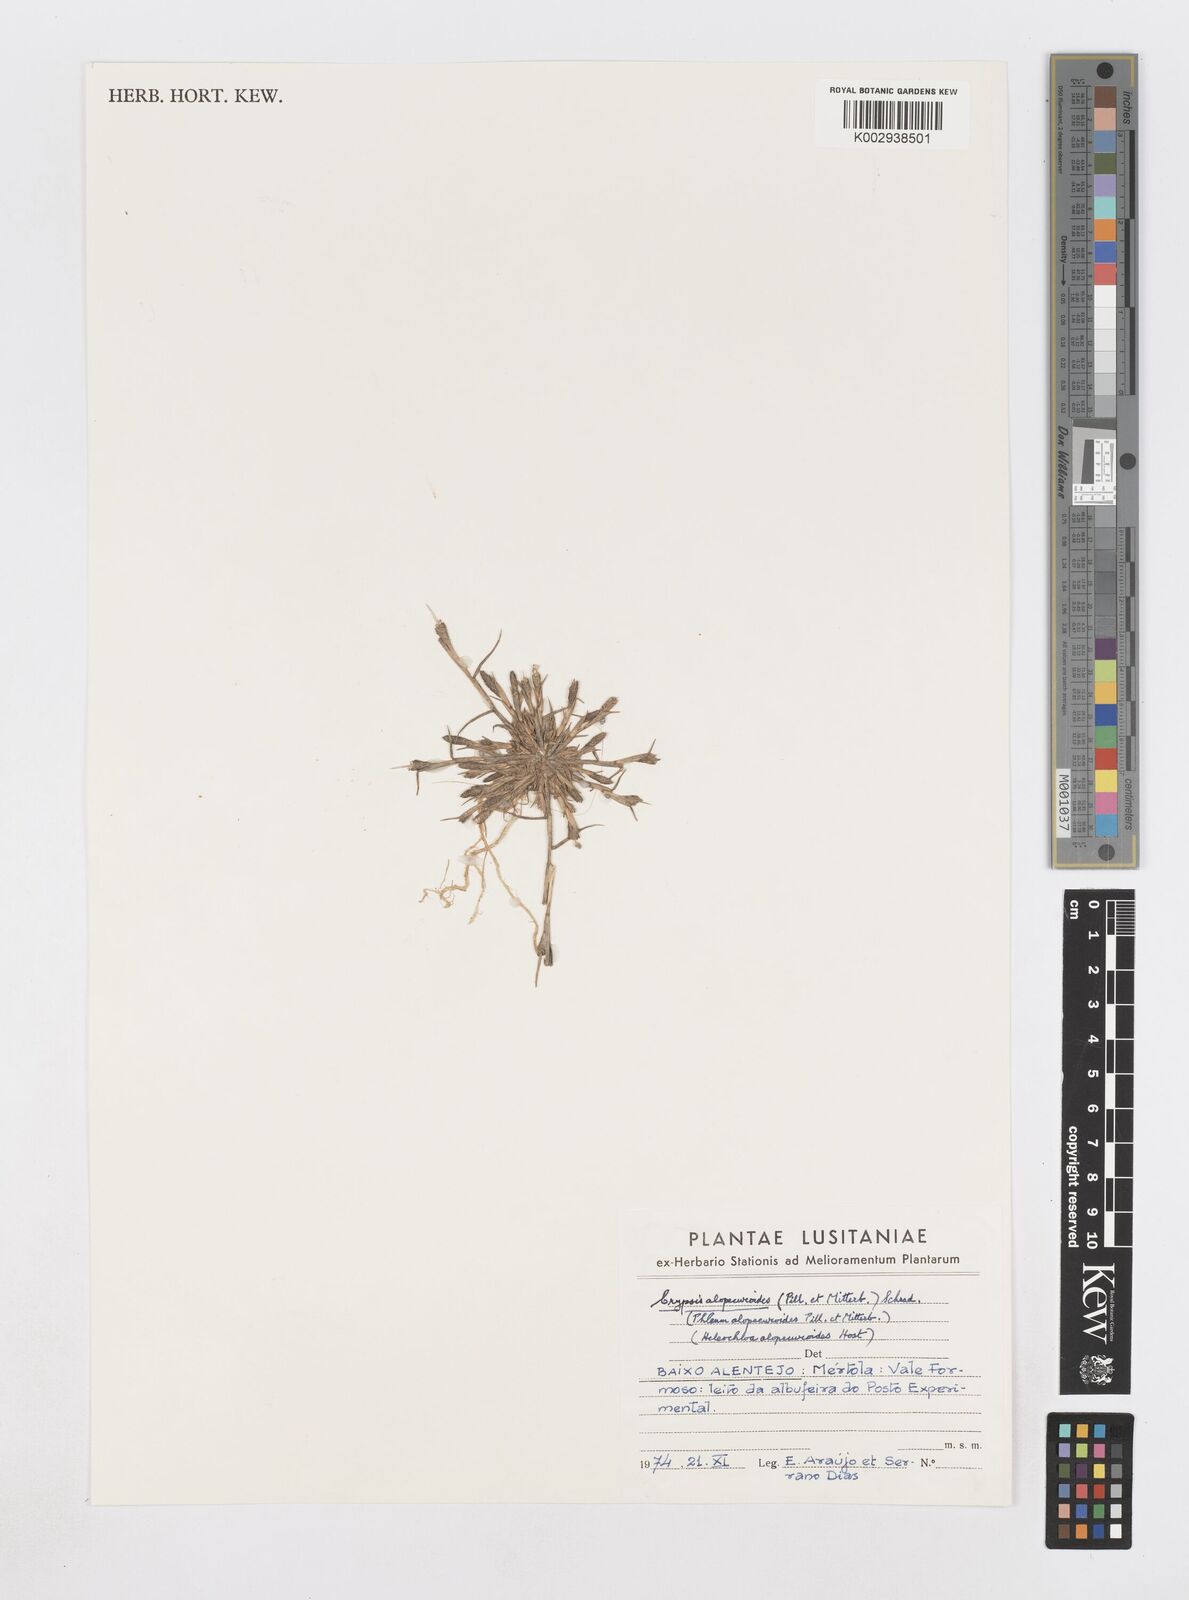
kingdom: Plantae
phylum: Tracheophyta
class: Liliopsida
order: Poales
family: Poaceae
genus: Sporobolus
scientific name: Sporobolus alopecuroides
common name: Foxtail pricklegrass
